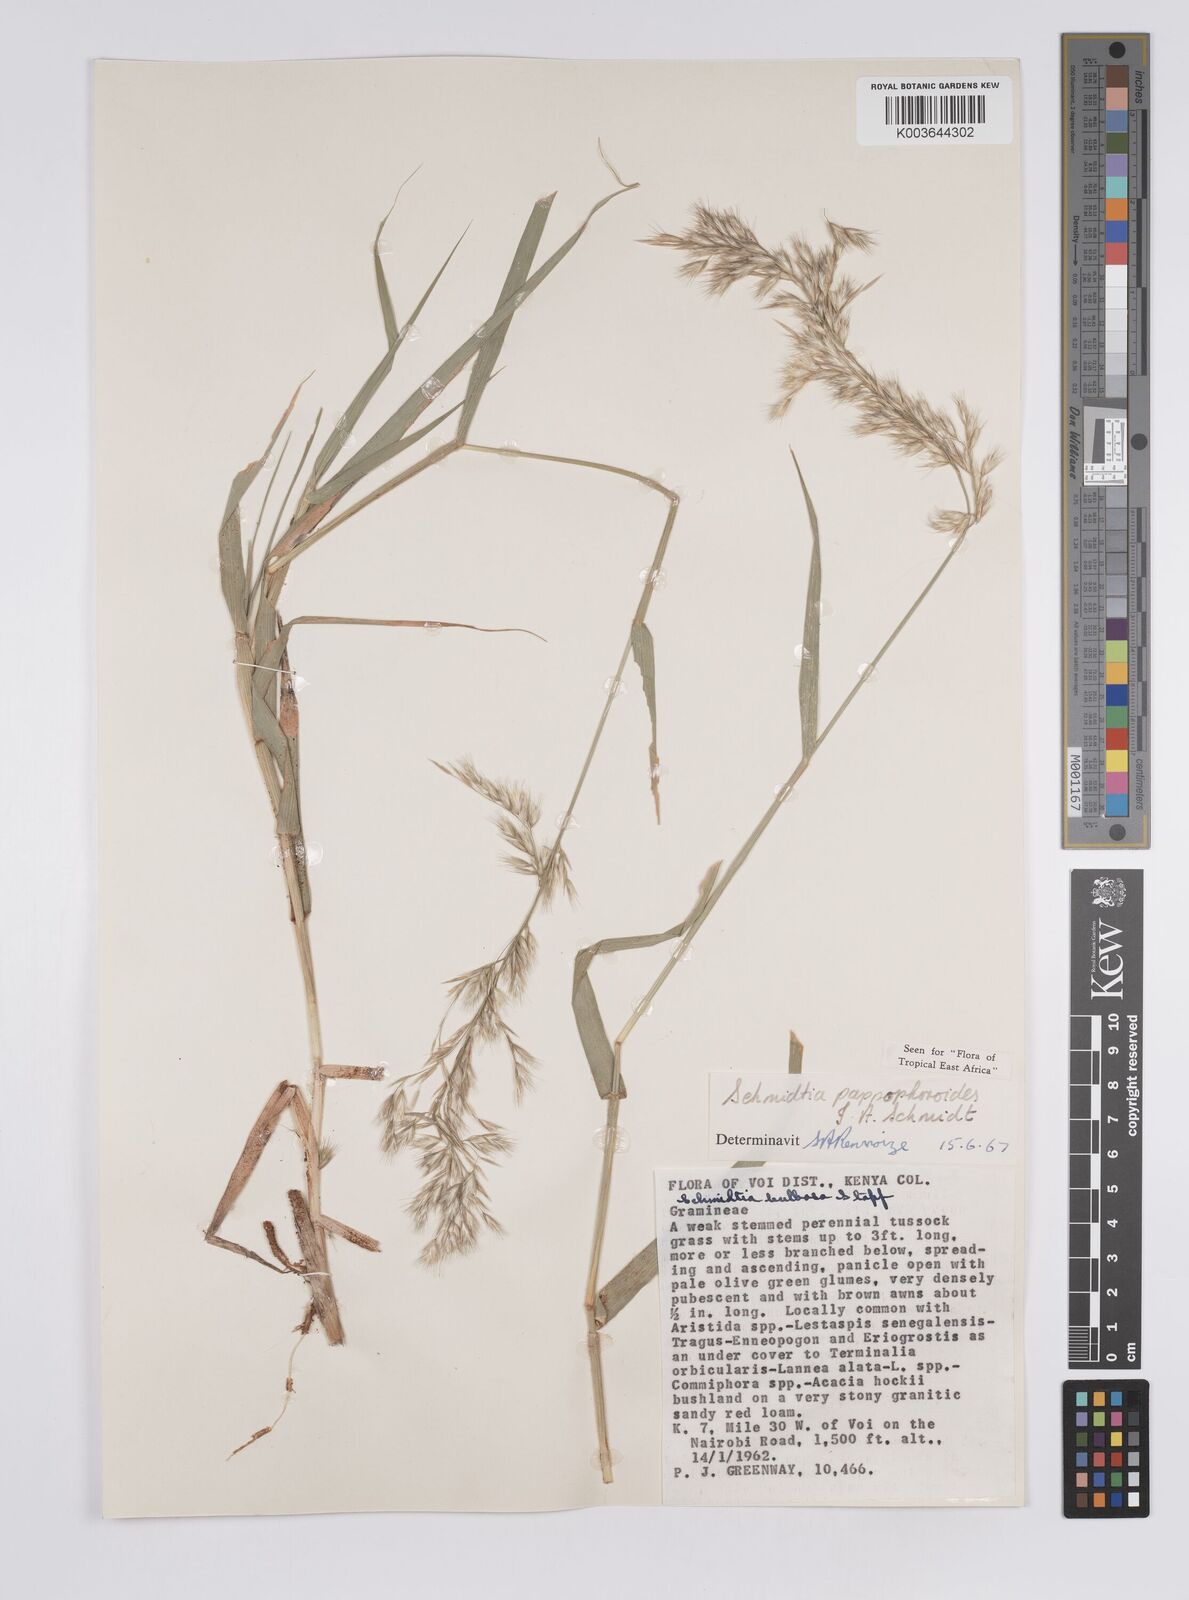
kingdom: Plantae
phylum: Tracheophyta
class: Liliopsida
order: Poales
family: Poaceae
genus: Schmidtia
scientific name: Schmidtia pappophoroides
